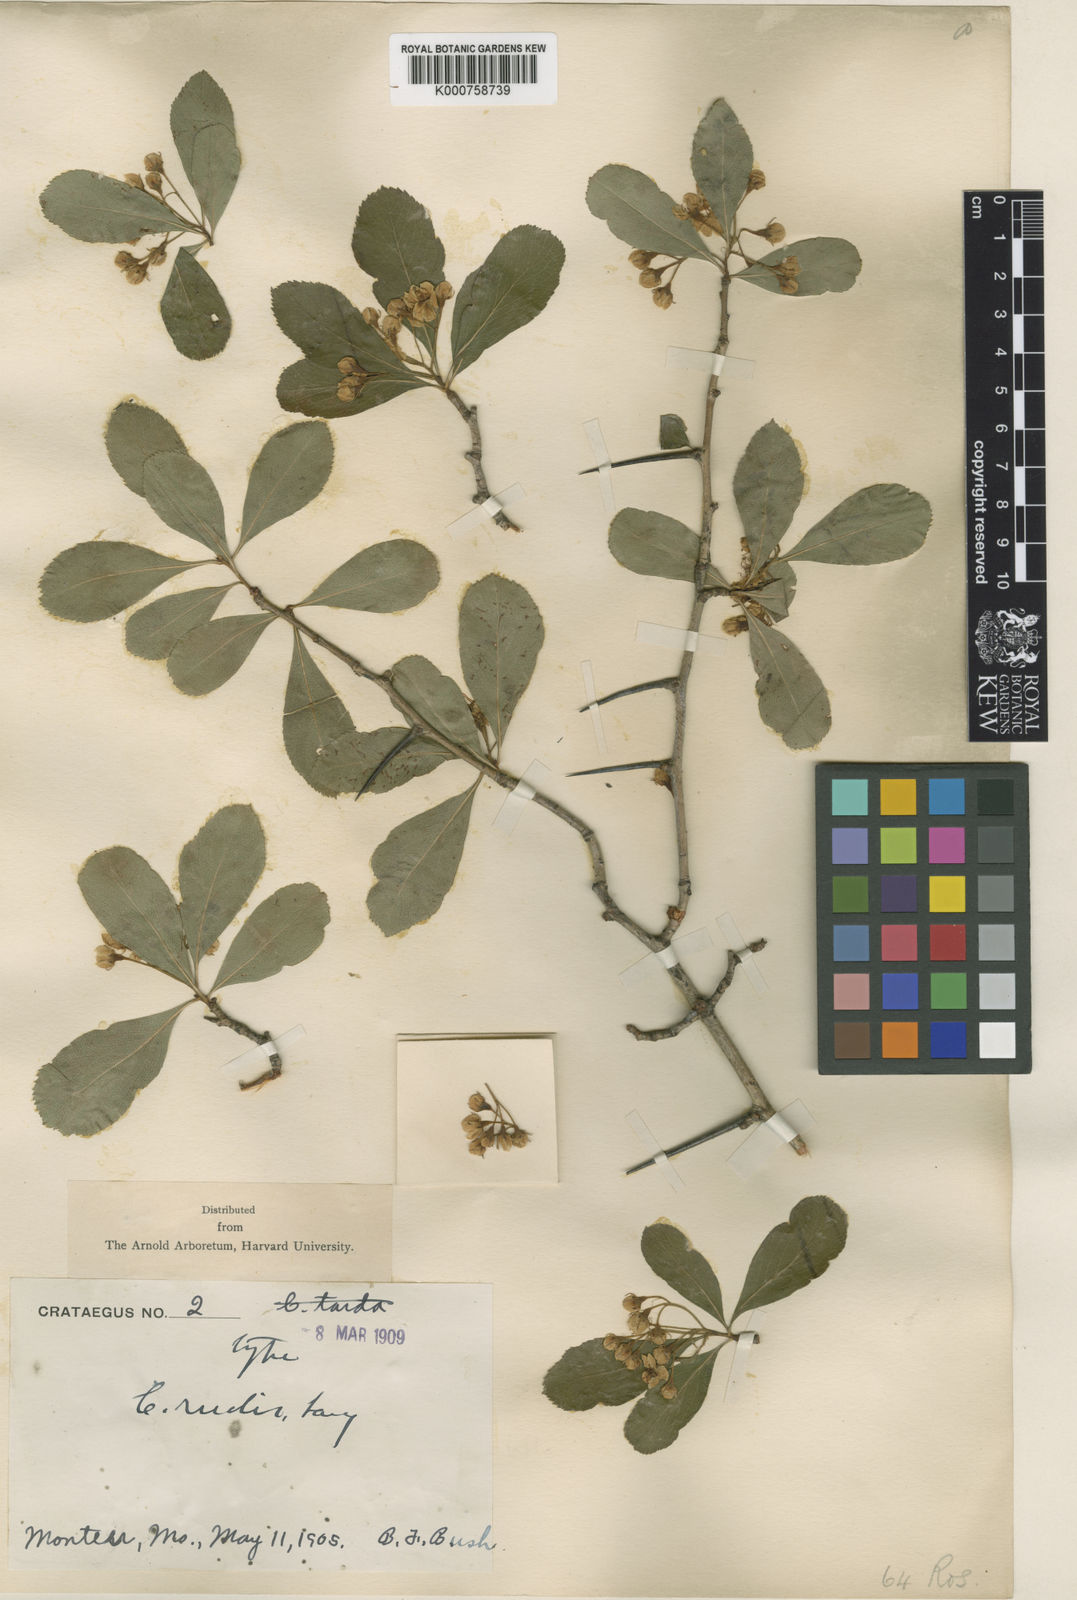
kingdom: Plantae
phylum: Tracheophyta
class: Magnoliopsida
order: Rosales
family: Rosaceae
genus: Crataegus
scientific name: Crataegus rudis
